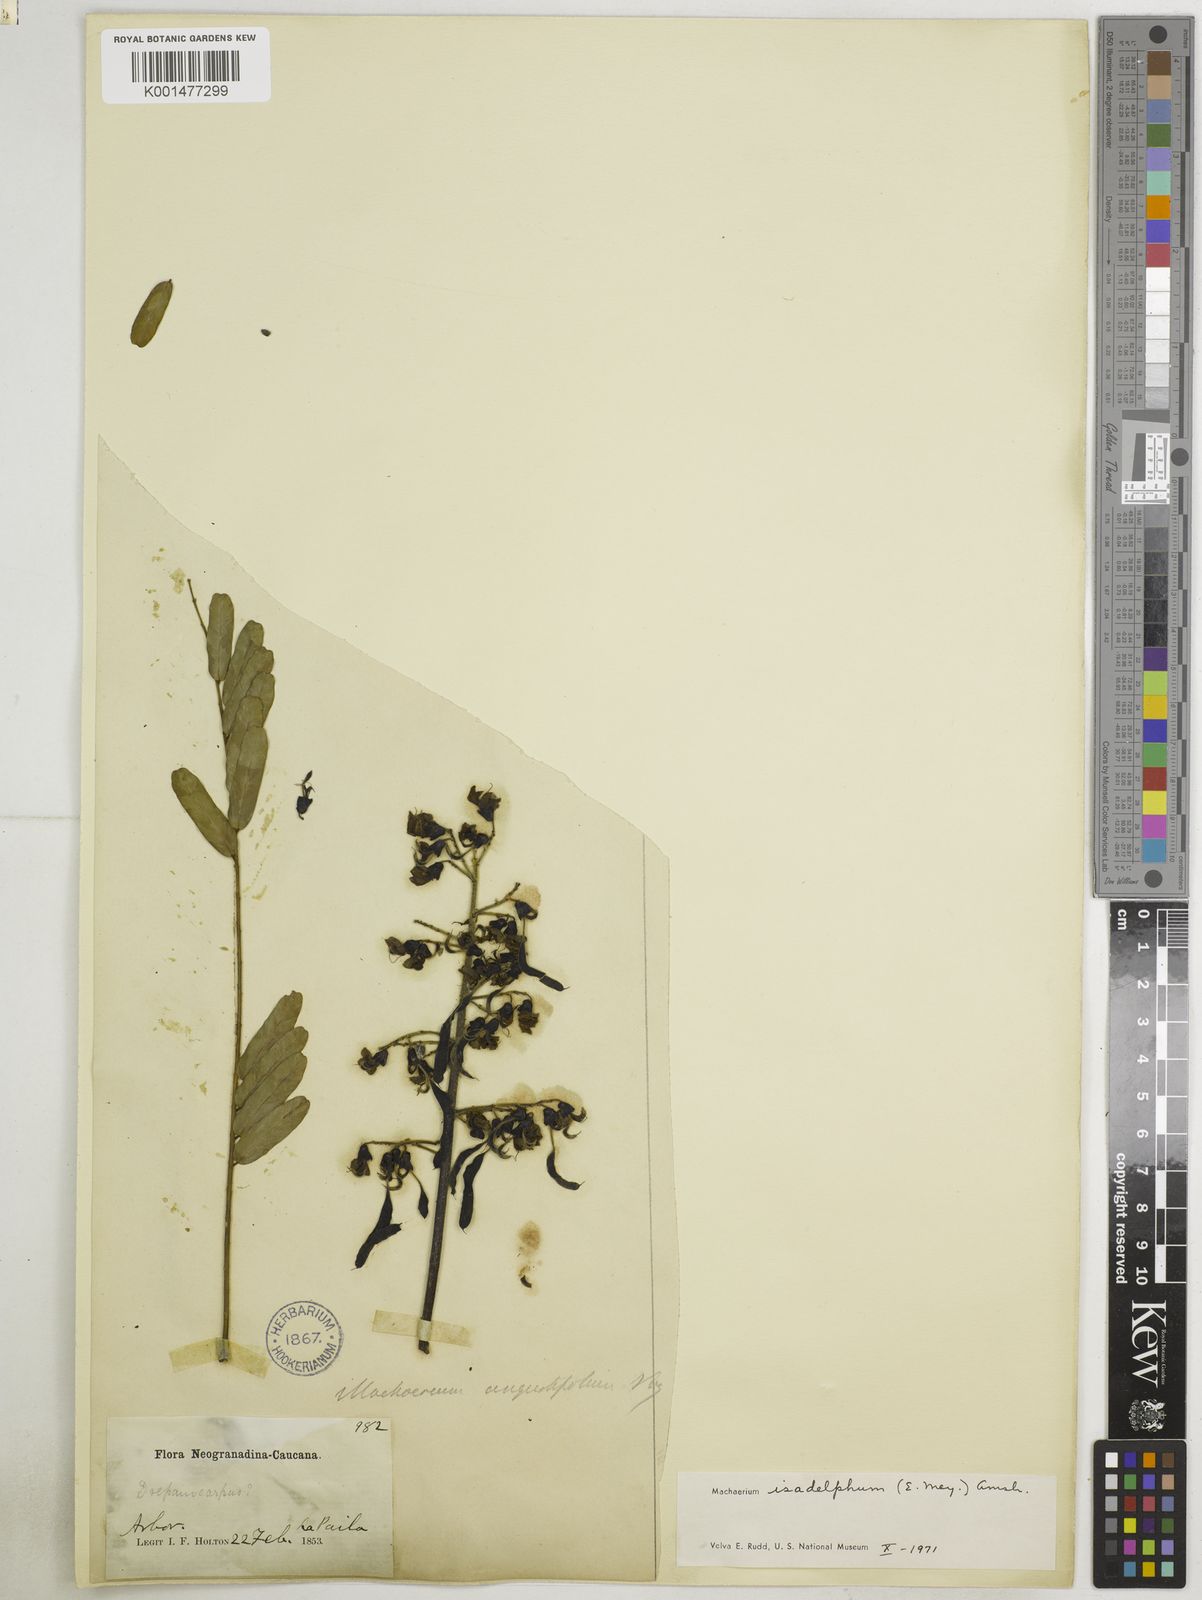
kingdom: Plantae
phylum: Tracheophyta
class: Magnoliopsida
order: Fabales
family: Fabaceae
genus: Machaerium
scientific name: Machaerium isadelphum
